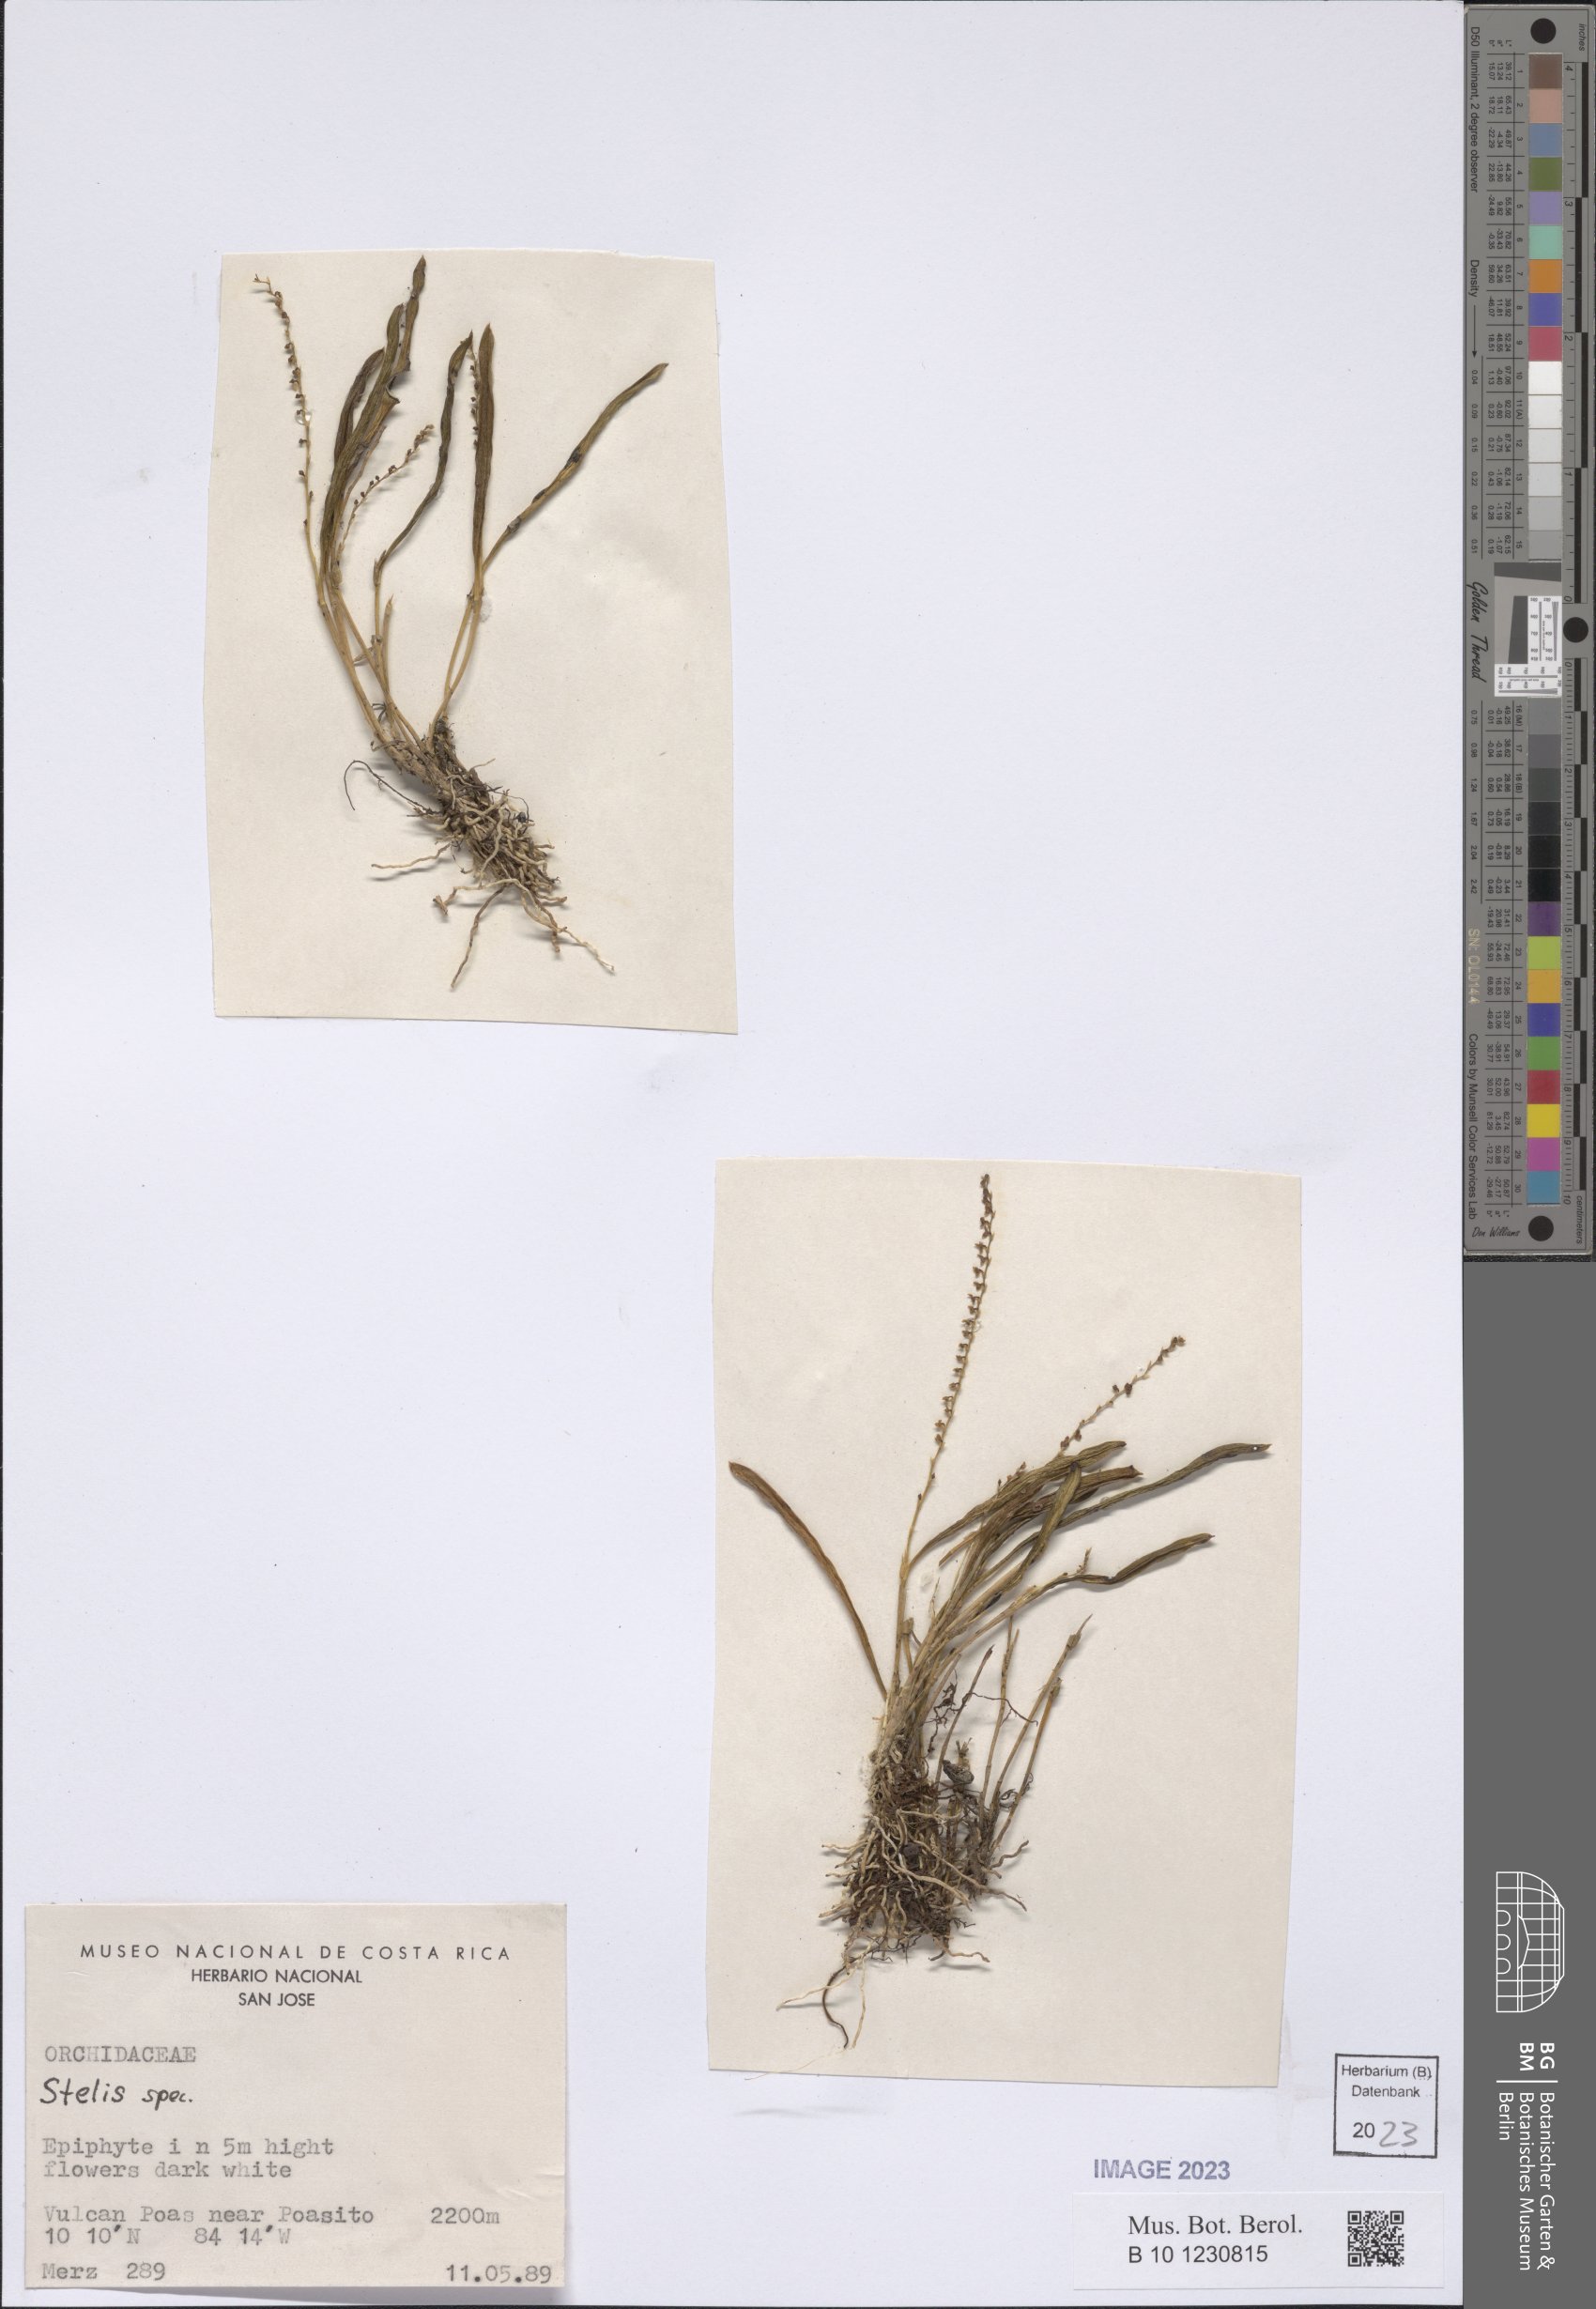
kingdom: Plantae
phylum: Tracheophyta
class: Liliopsida
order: Asparagales
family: Orchidaceae
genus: Stelis
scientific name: Stelis
